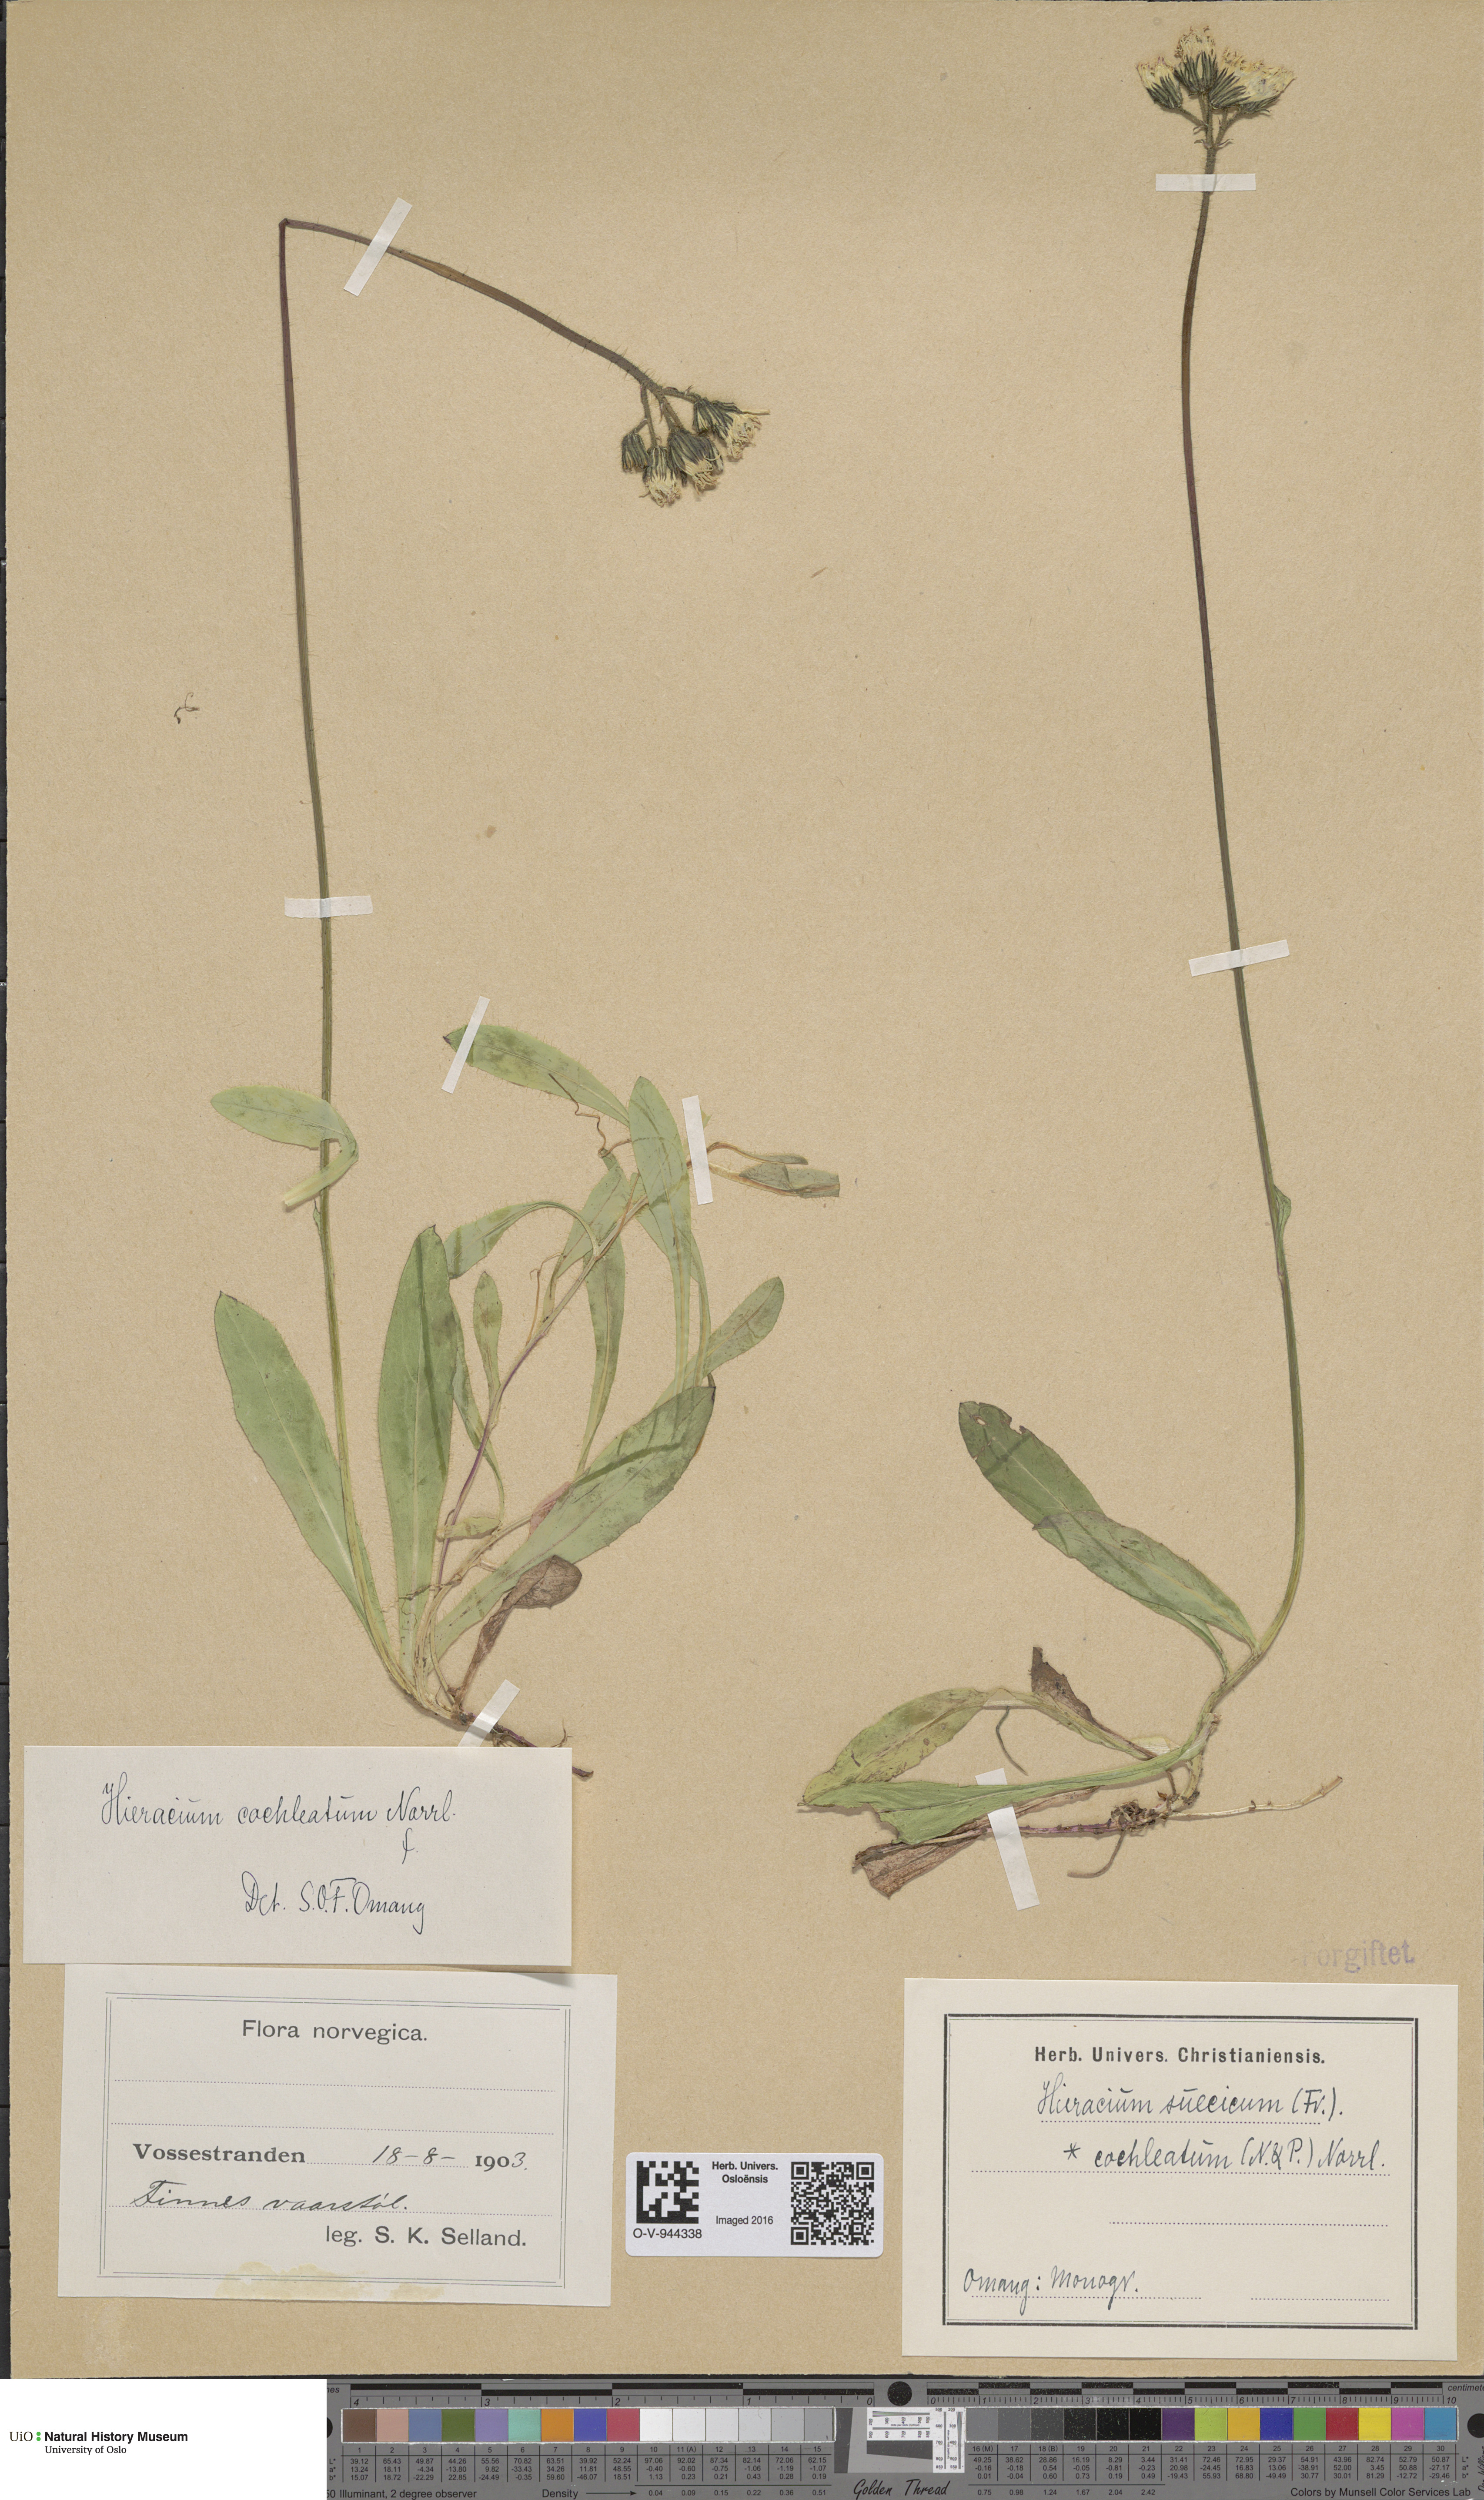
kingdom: Plantae
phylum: Tracheophyta
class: Magnoliopsida
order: Asterales
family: Asteraceae
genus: Pilosella
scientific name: Pilosella dubia
